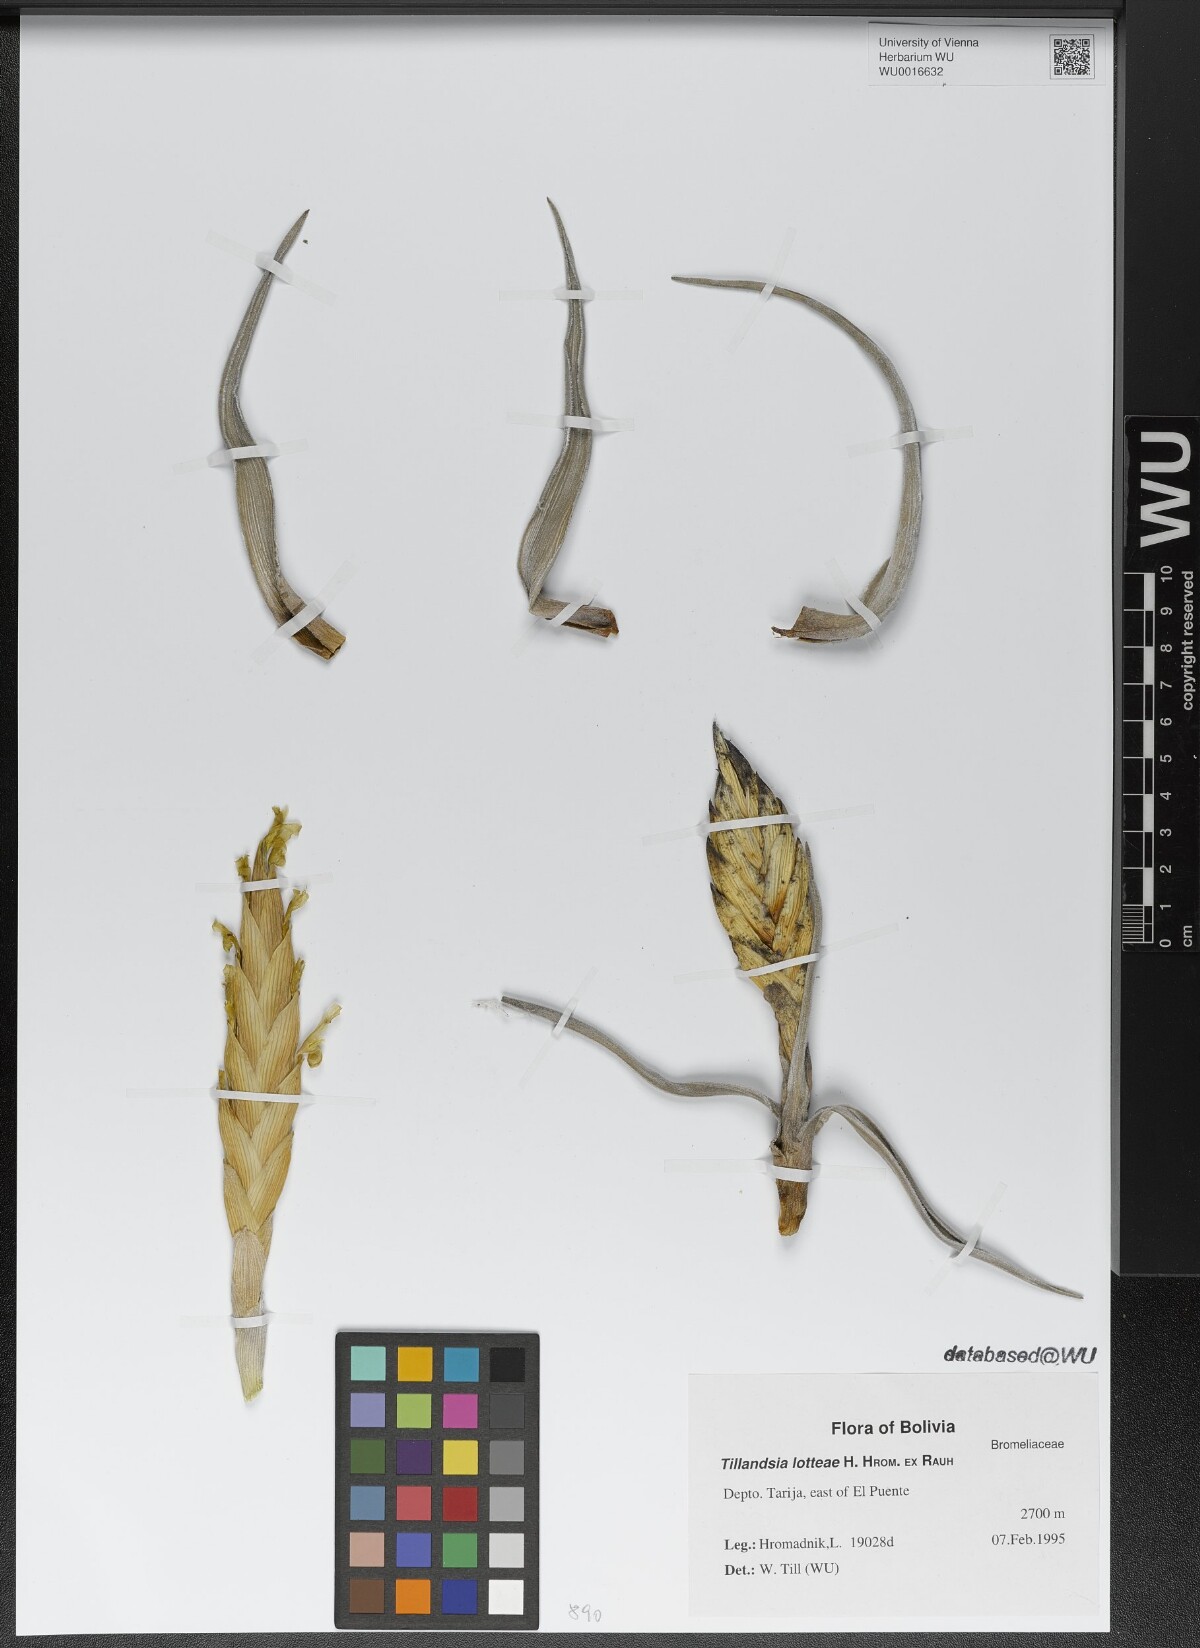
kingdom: Plantae
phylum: Tracheophyta
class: Liliopsida
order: Poales
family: Bromeliaceae
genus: Tillandsia
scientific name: Tillandsia lotteae
